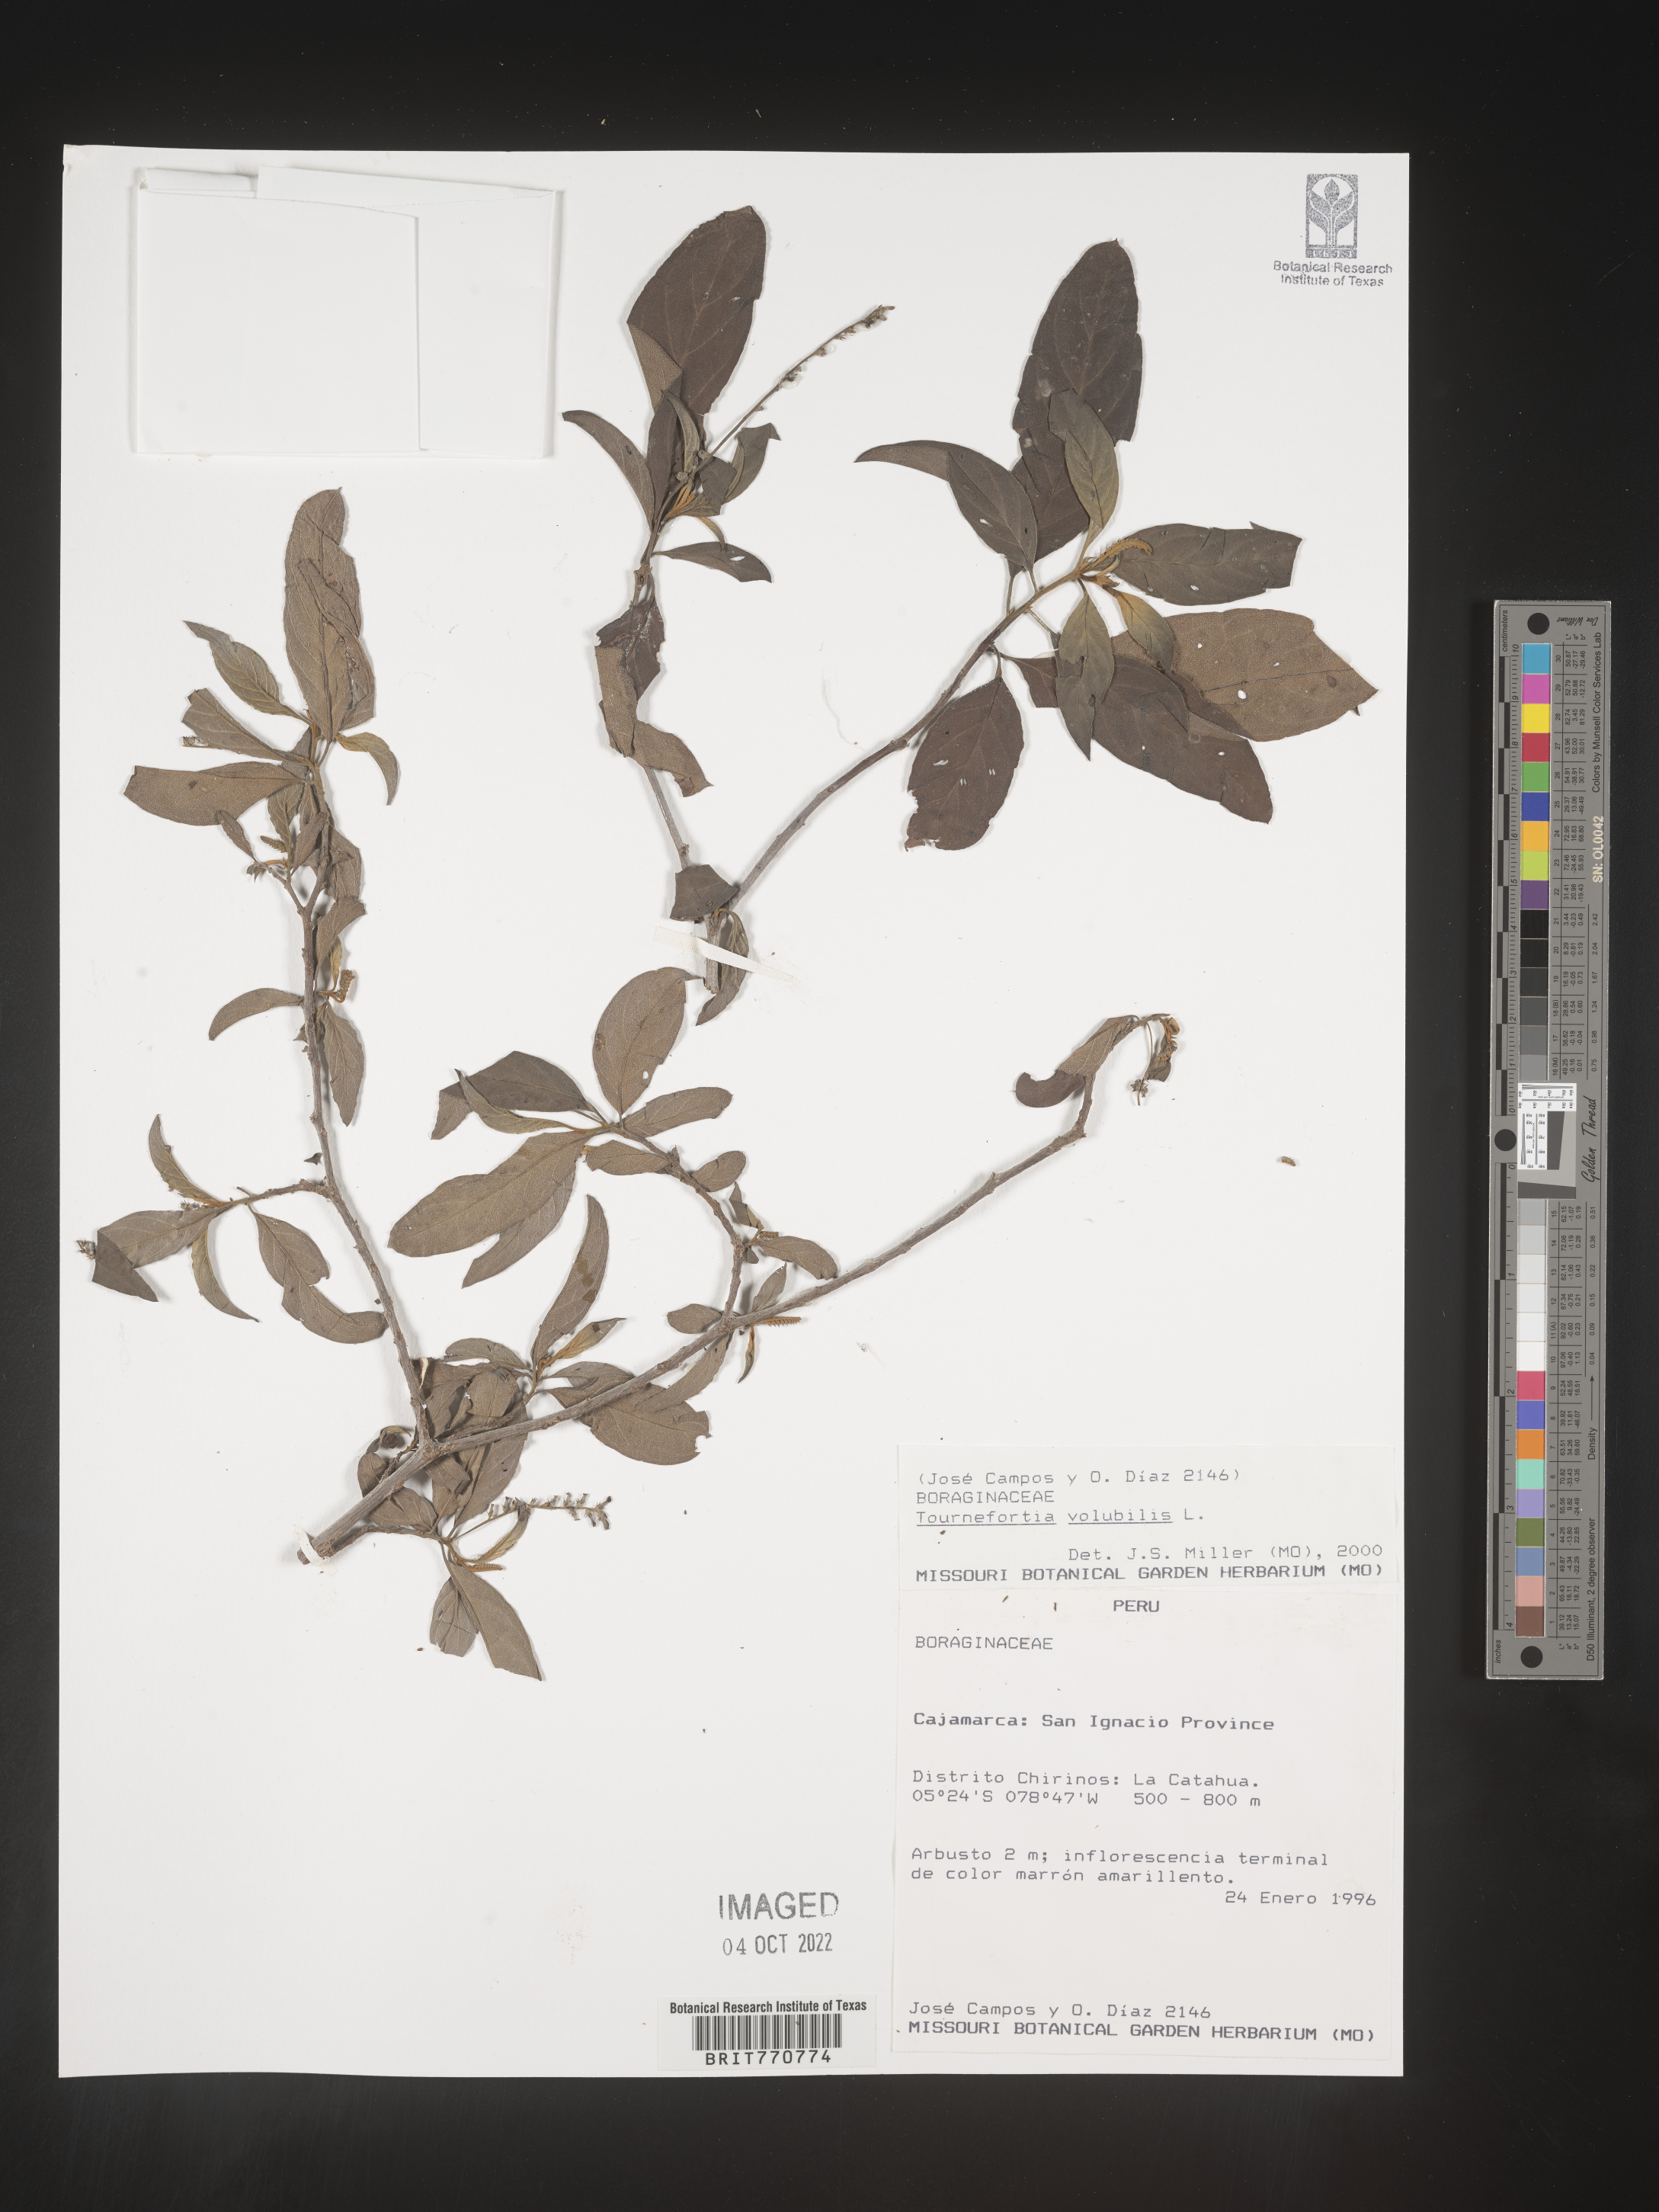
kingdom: Plantae
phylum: Tracheophyta
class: Magnoliopsida
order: Boraginales
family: Heliotropiaceae
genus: Tournefortia
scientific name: Tournefortia
